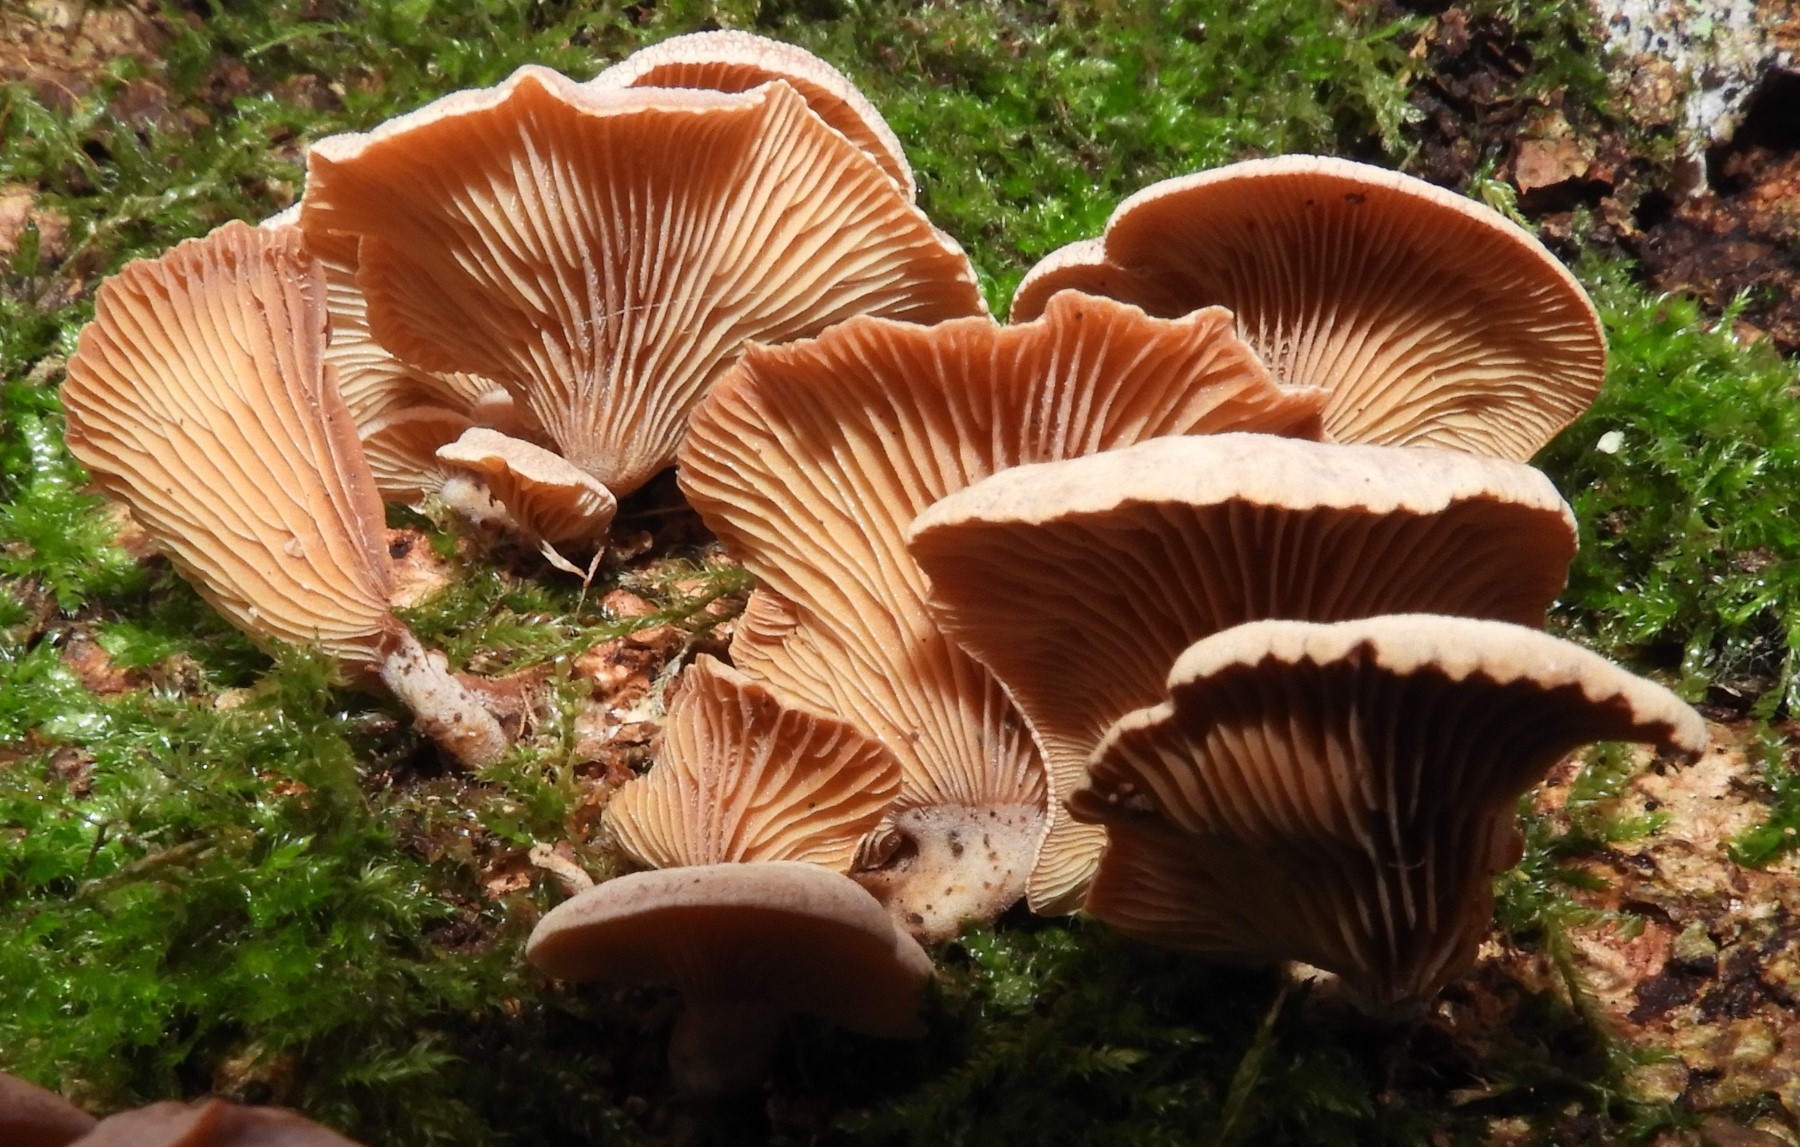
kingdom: Fungi
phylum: Basidiomycota
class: Agaricomycetes
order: Agaricales
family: Mycenaceae
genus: Panellus
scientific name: Panellus stipticus
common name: kliddet epaulethat
